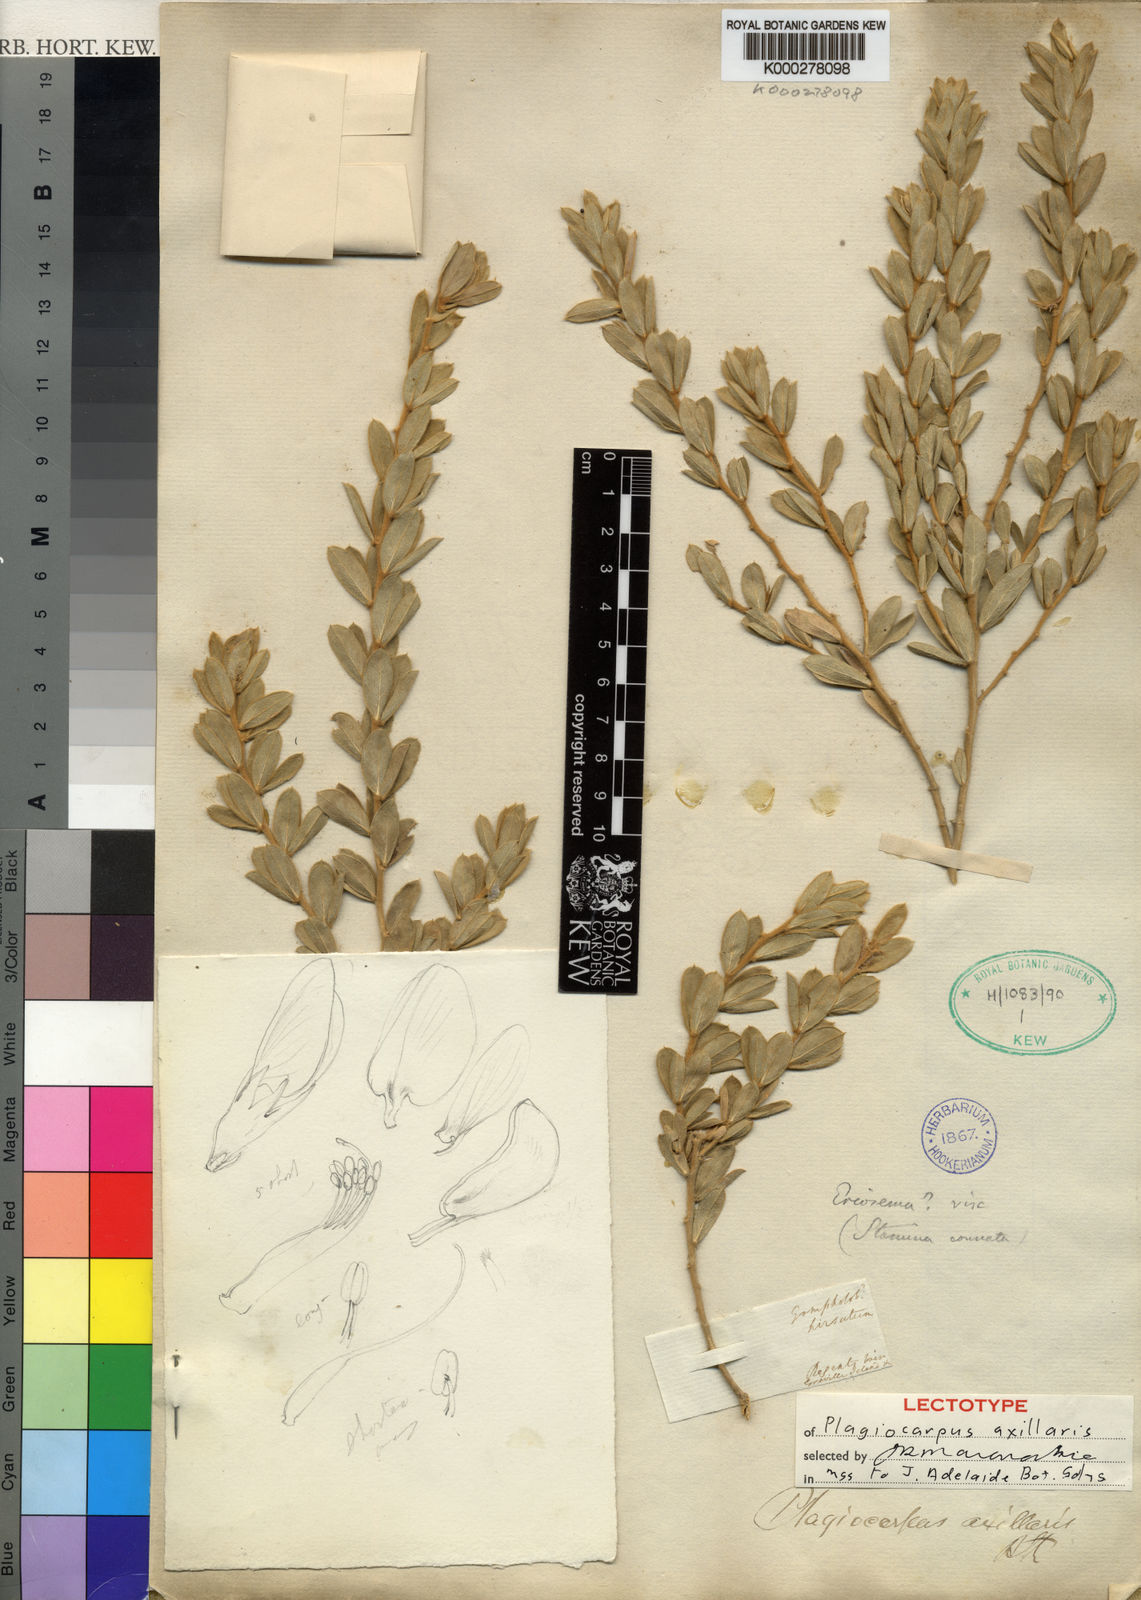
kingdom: Plantae
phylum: Tracheophyta
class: Magnoliopsida
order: Fabales
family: Fabaceae
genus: Plagiocarpus
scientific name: Plagiocarpus axillaris
